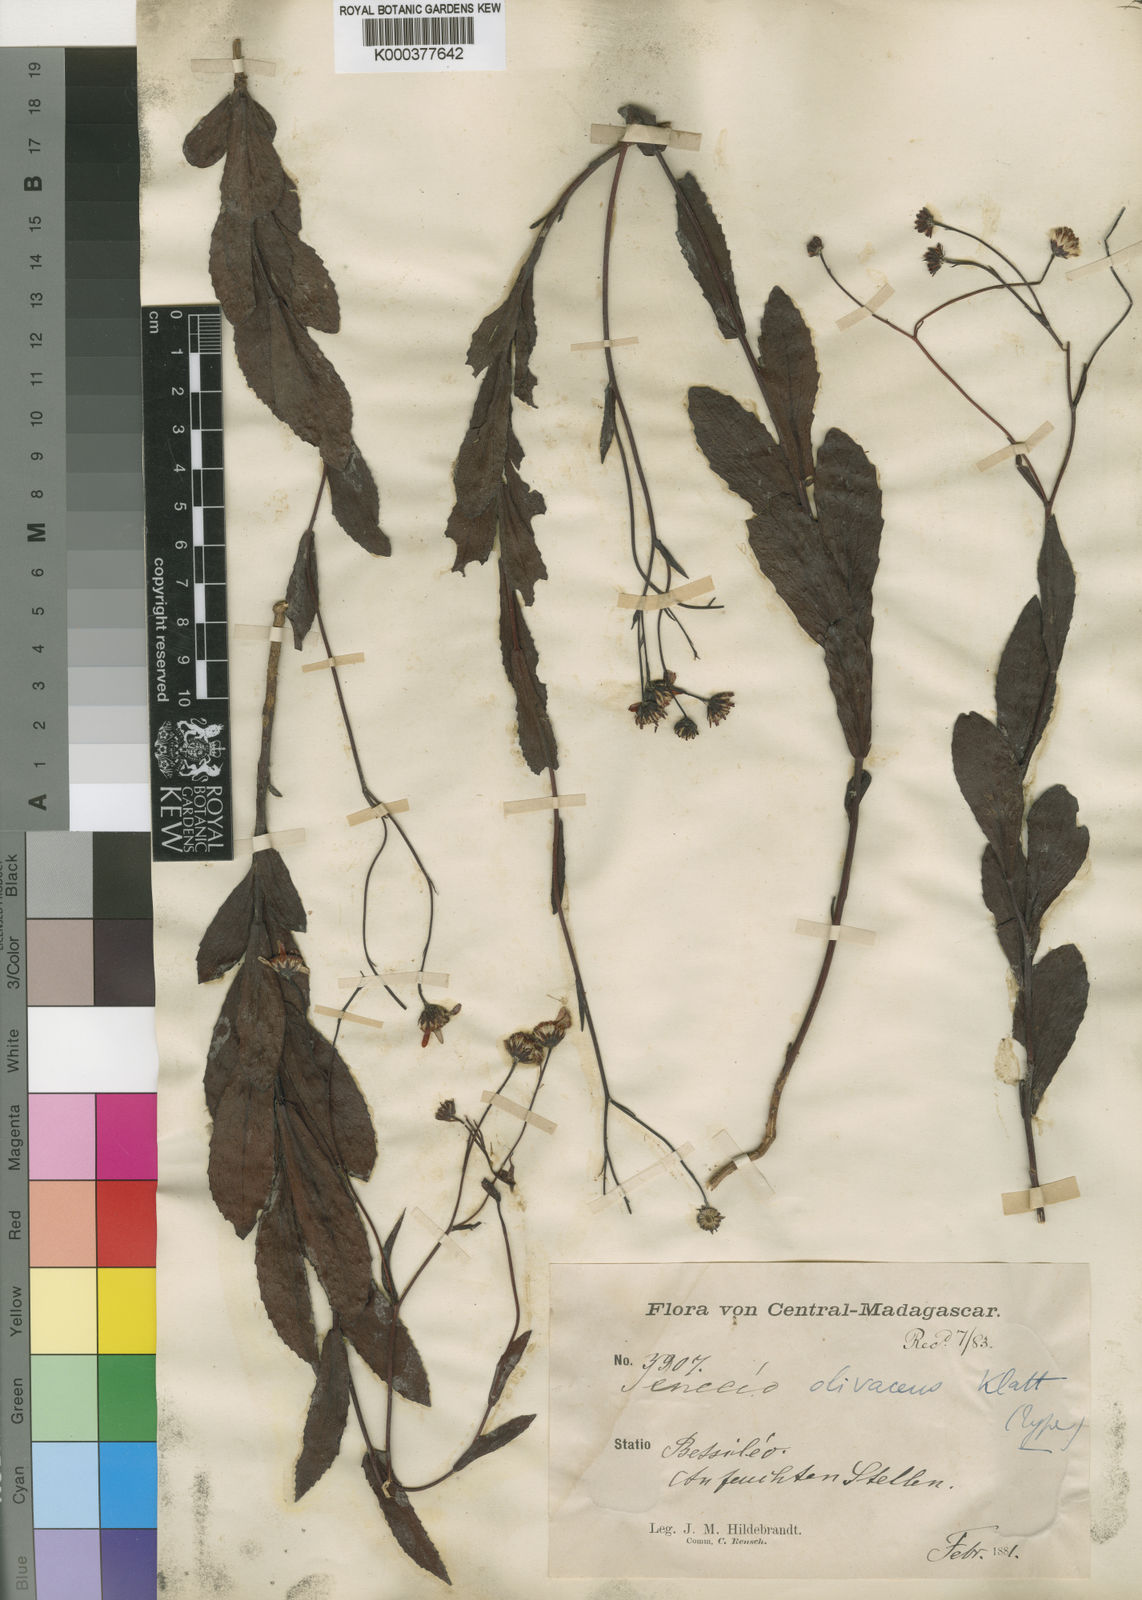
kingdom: Plantae
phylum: Tracheophyta
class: Magnoliopsida
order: Asterales
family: Asteraceae
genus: Hubertia
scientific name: Hubertia olivacea
